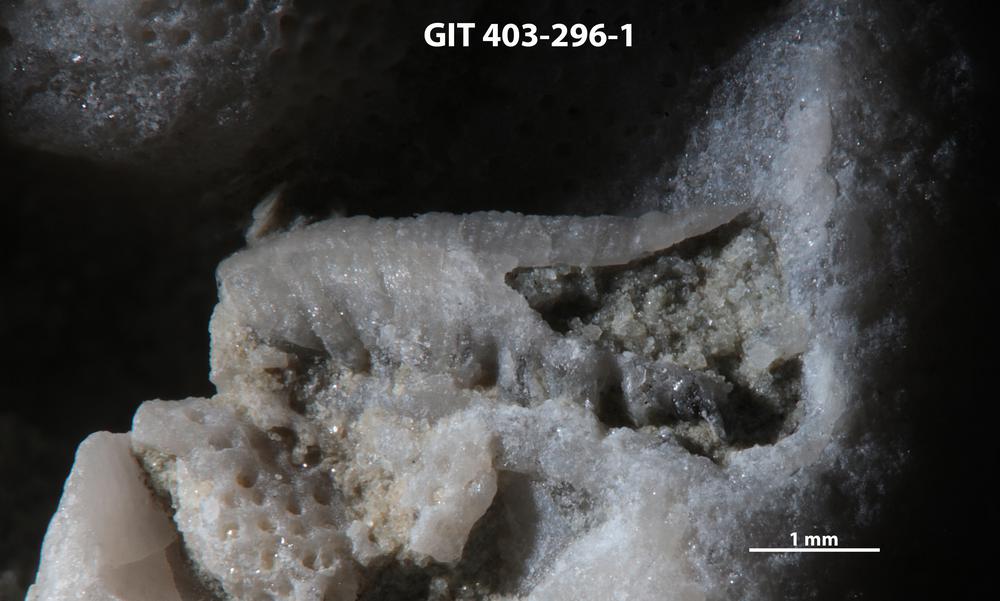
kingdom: Animalia
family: Cornulitidae
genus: Conchicolites
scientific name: Conchicolites
